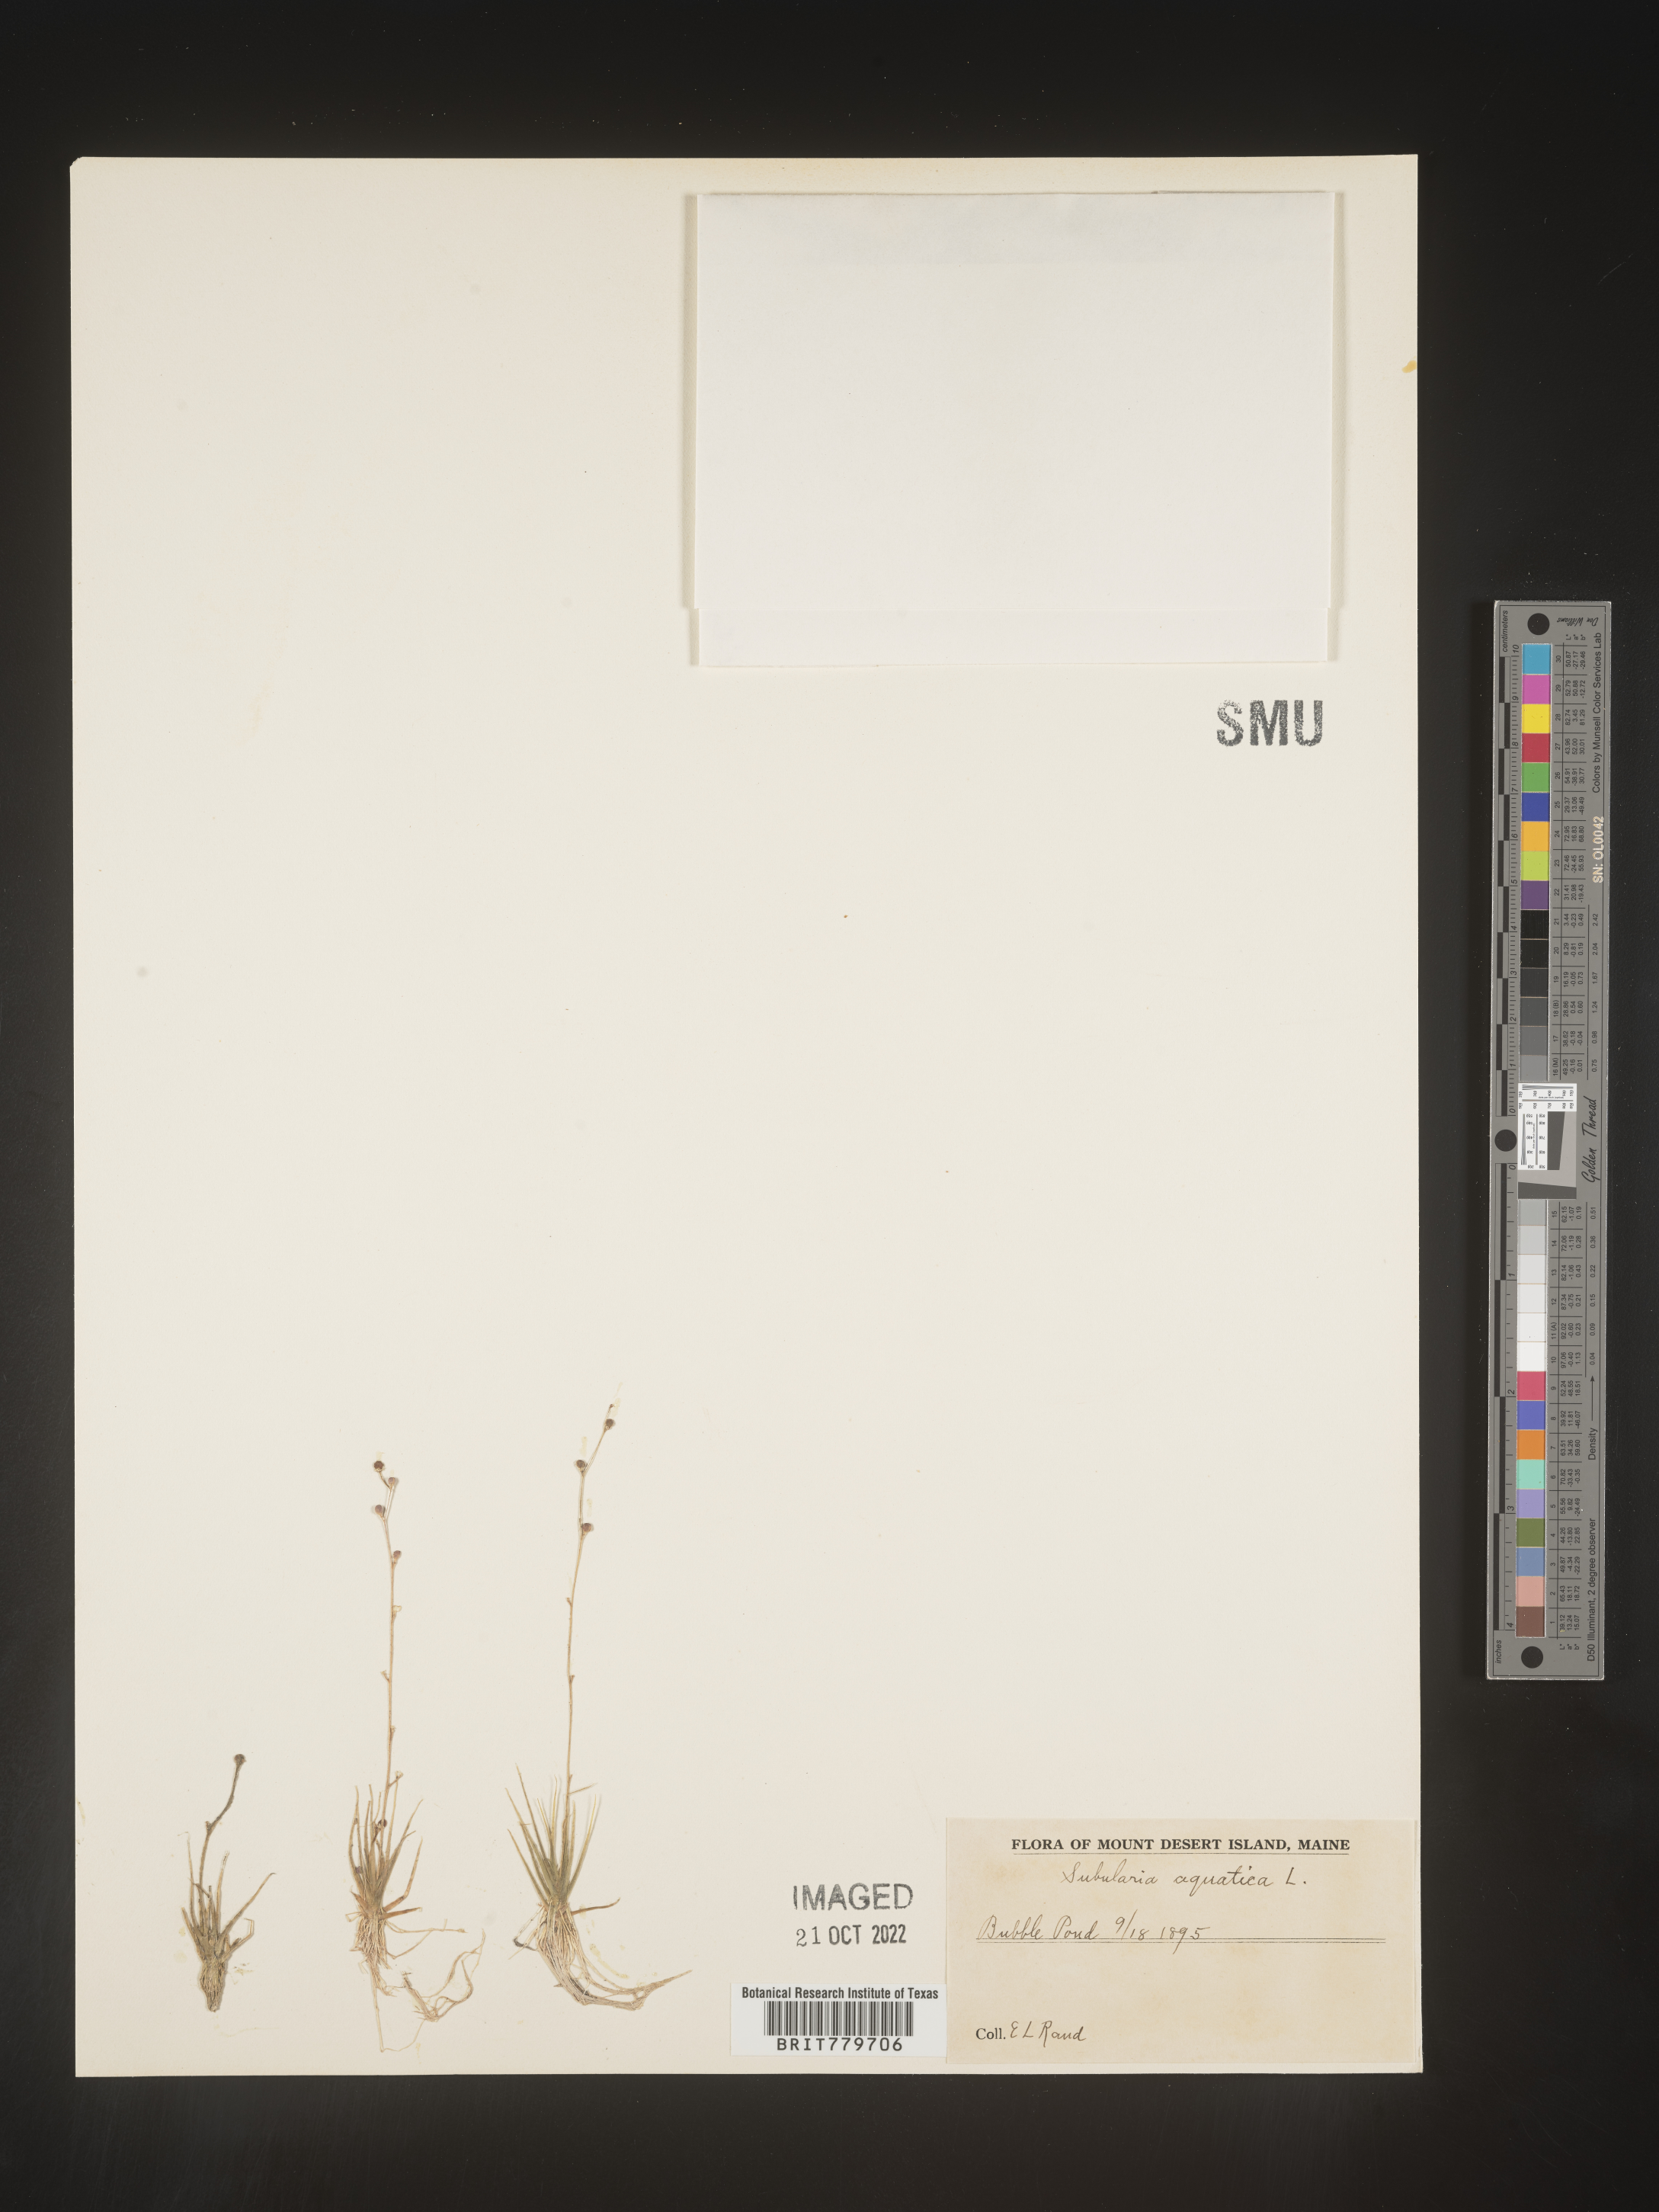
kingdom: Plantae
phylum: Tracheophyta
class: Magnoliopsida
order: Brassicales
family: Brassicaceae
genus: Subularia
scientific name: Subularia
